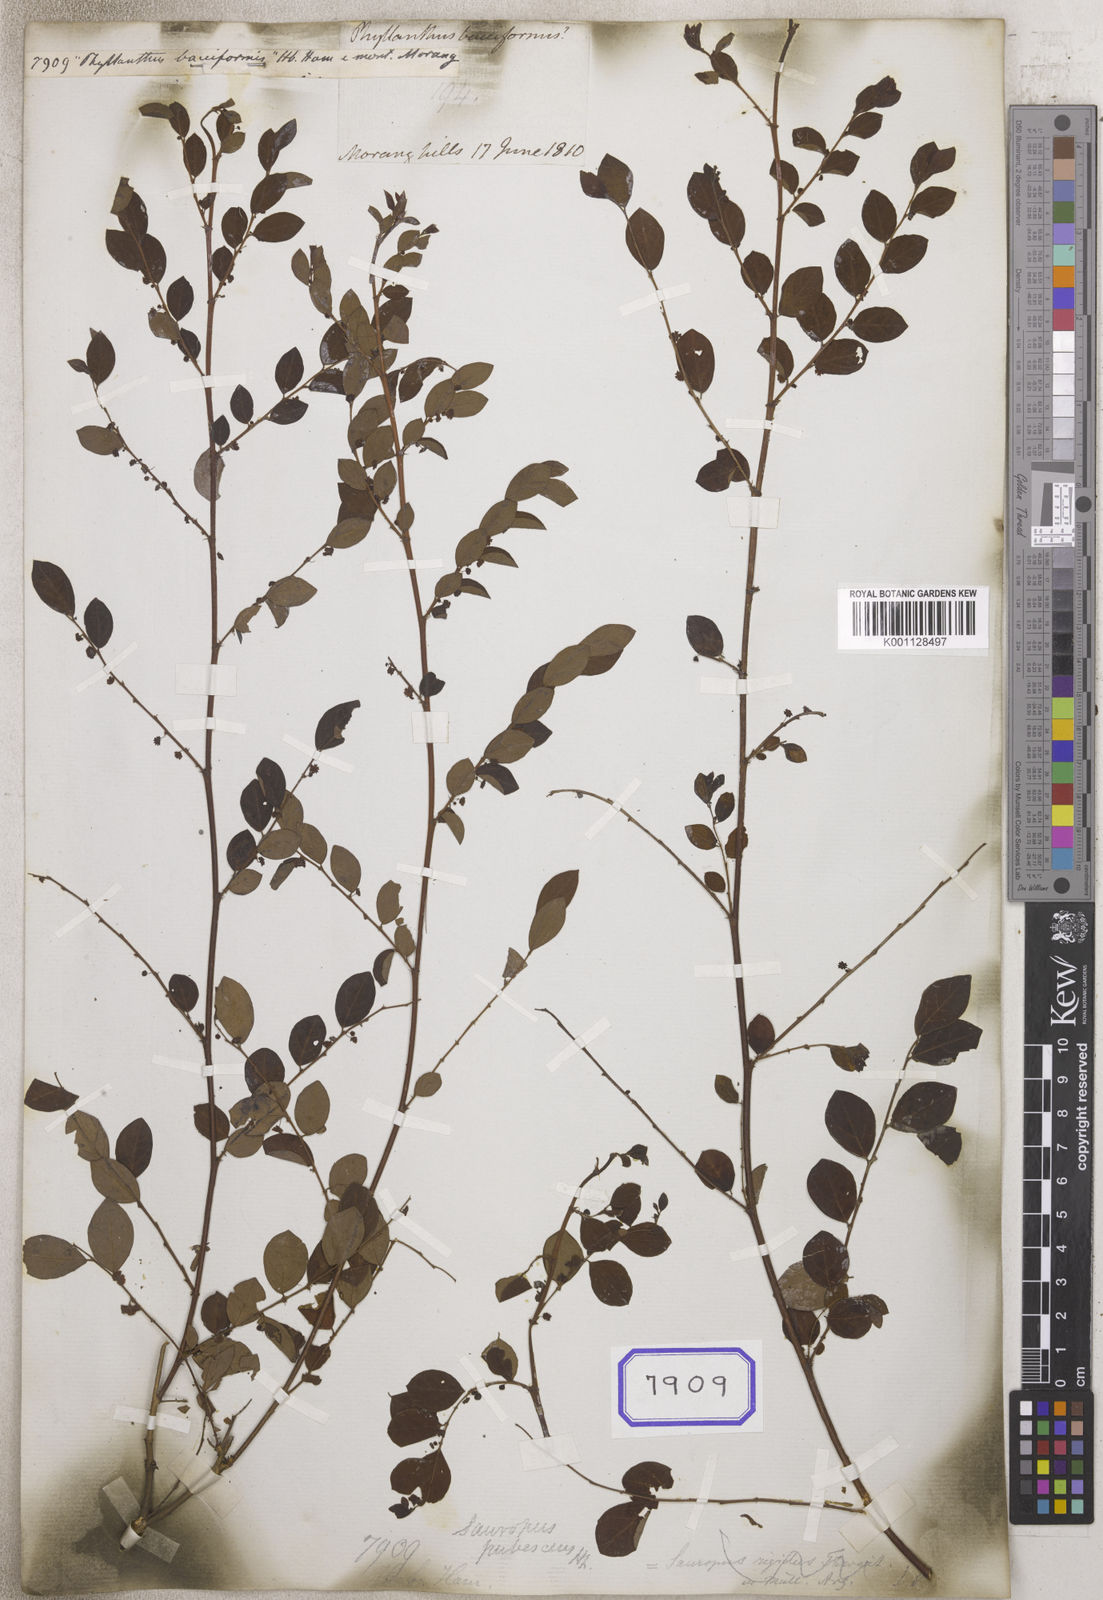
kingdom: Plantae
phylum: Tracheophyta
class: Magnoliopsida
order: Malpighiales
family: Euphorbiaceae
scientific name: Euphorbiaceae
